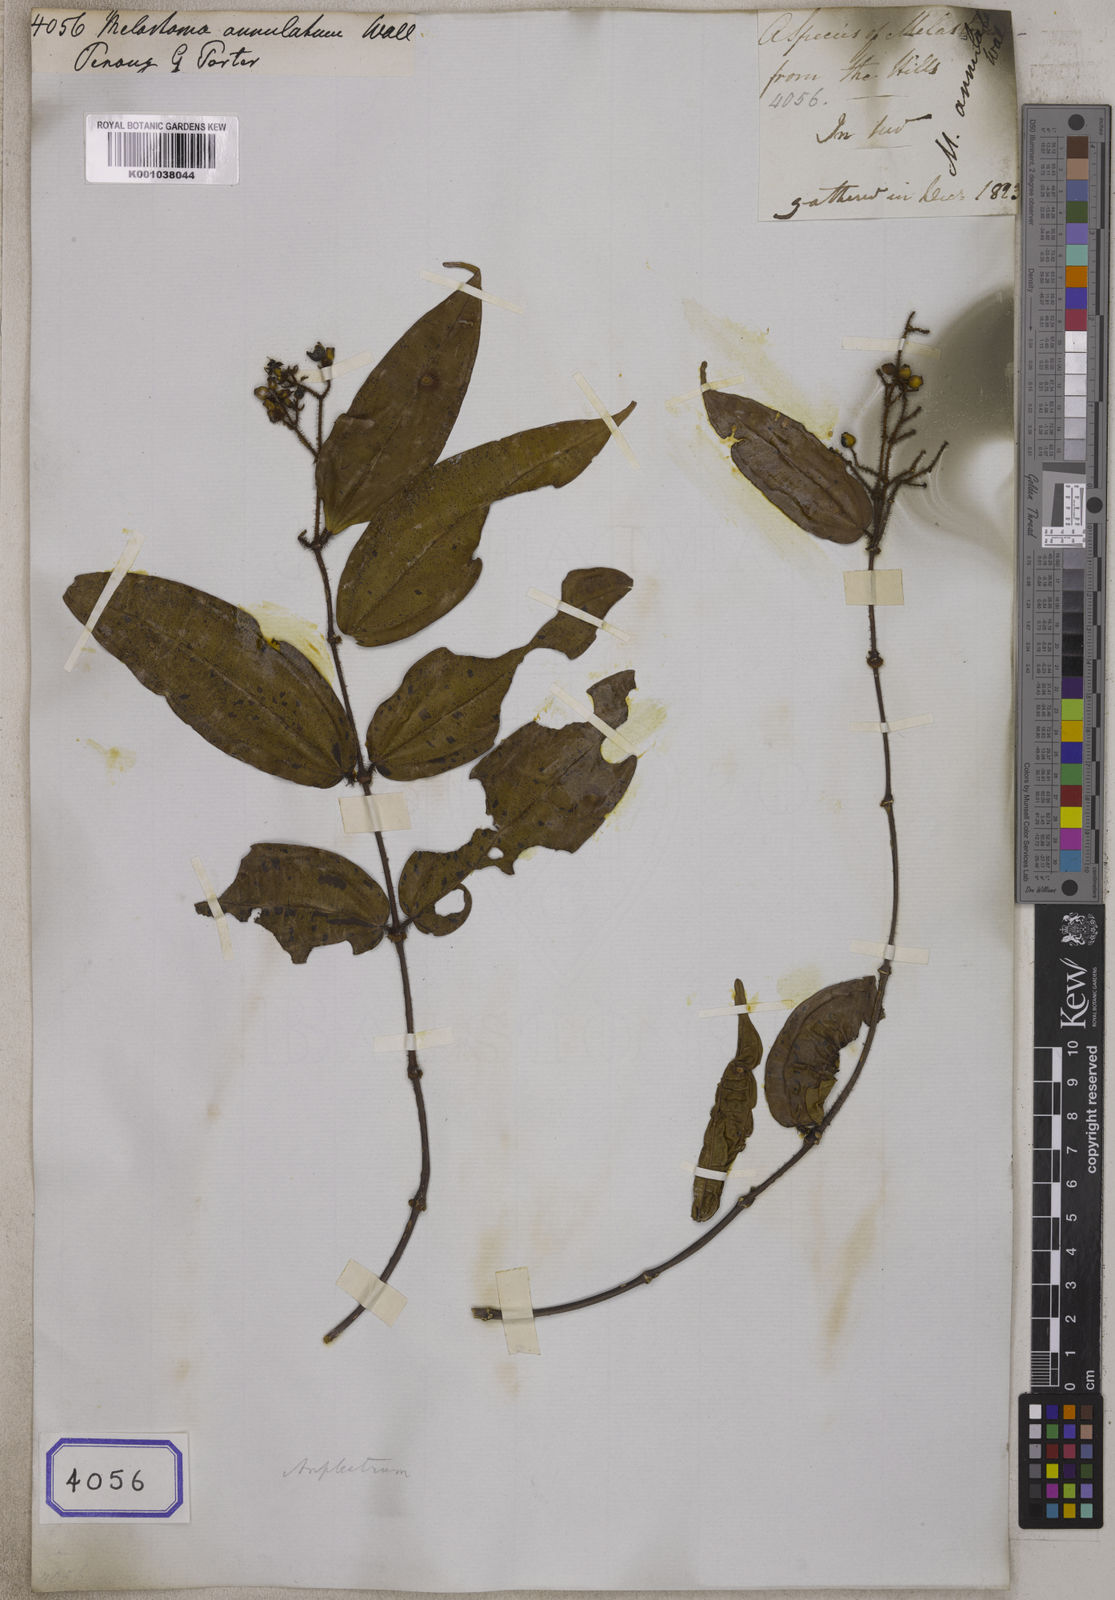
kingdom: Plantae
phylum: Tracheophyta
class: Magnoliopsida
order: Myrtales
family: Melastomataceae
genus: Melastoma
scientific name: Melastoma
